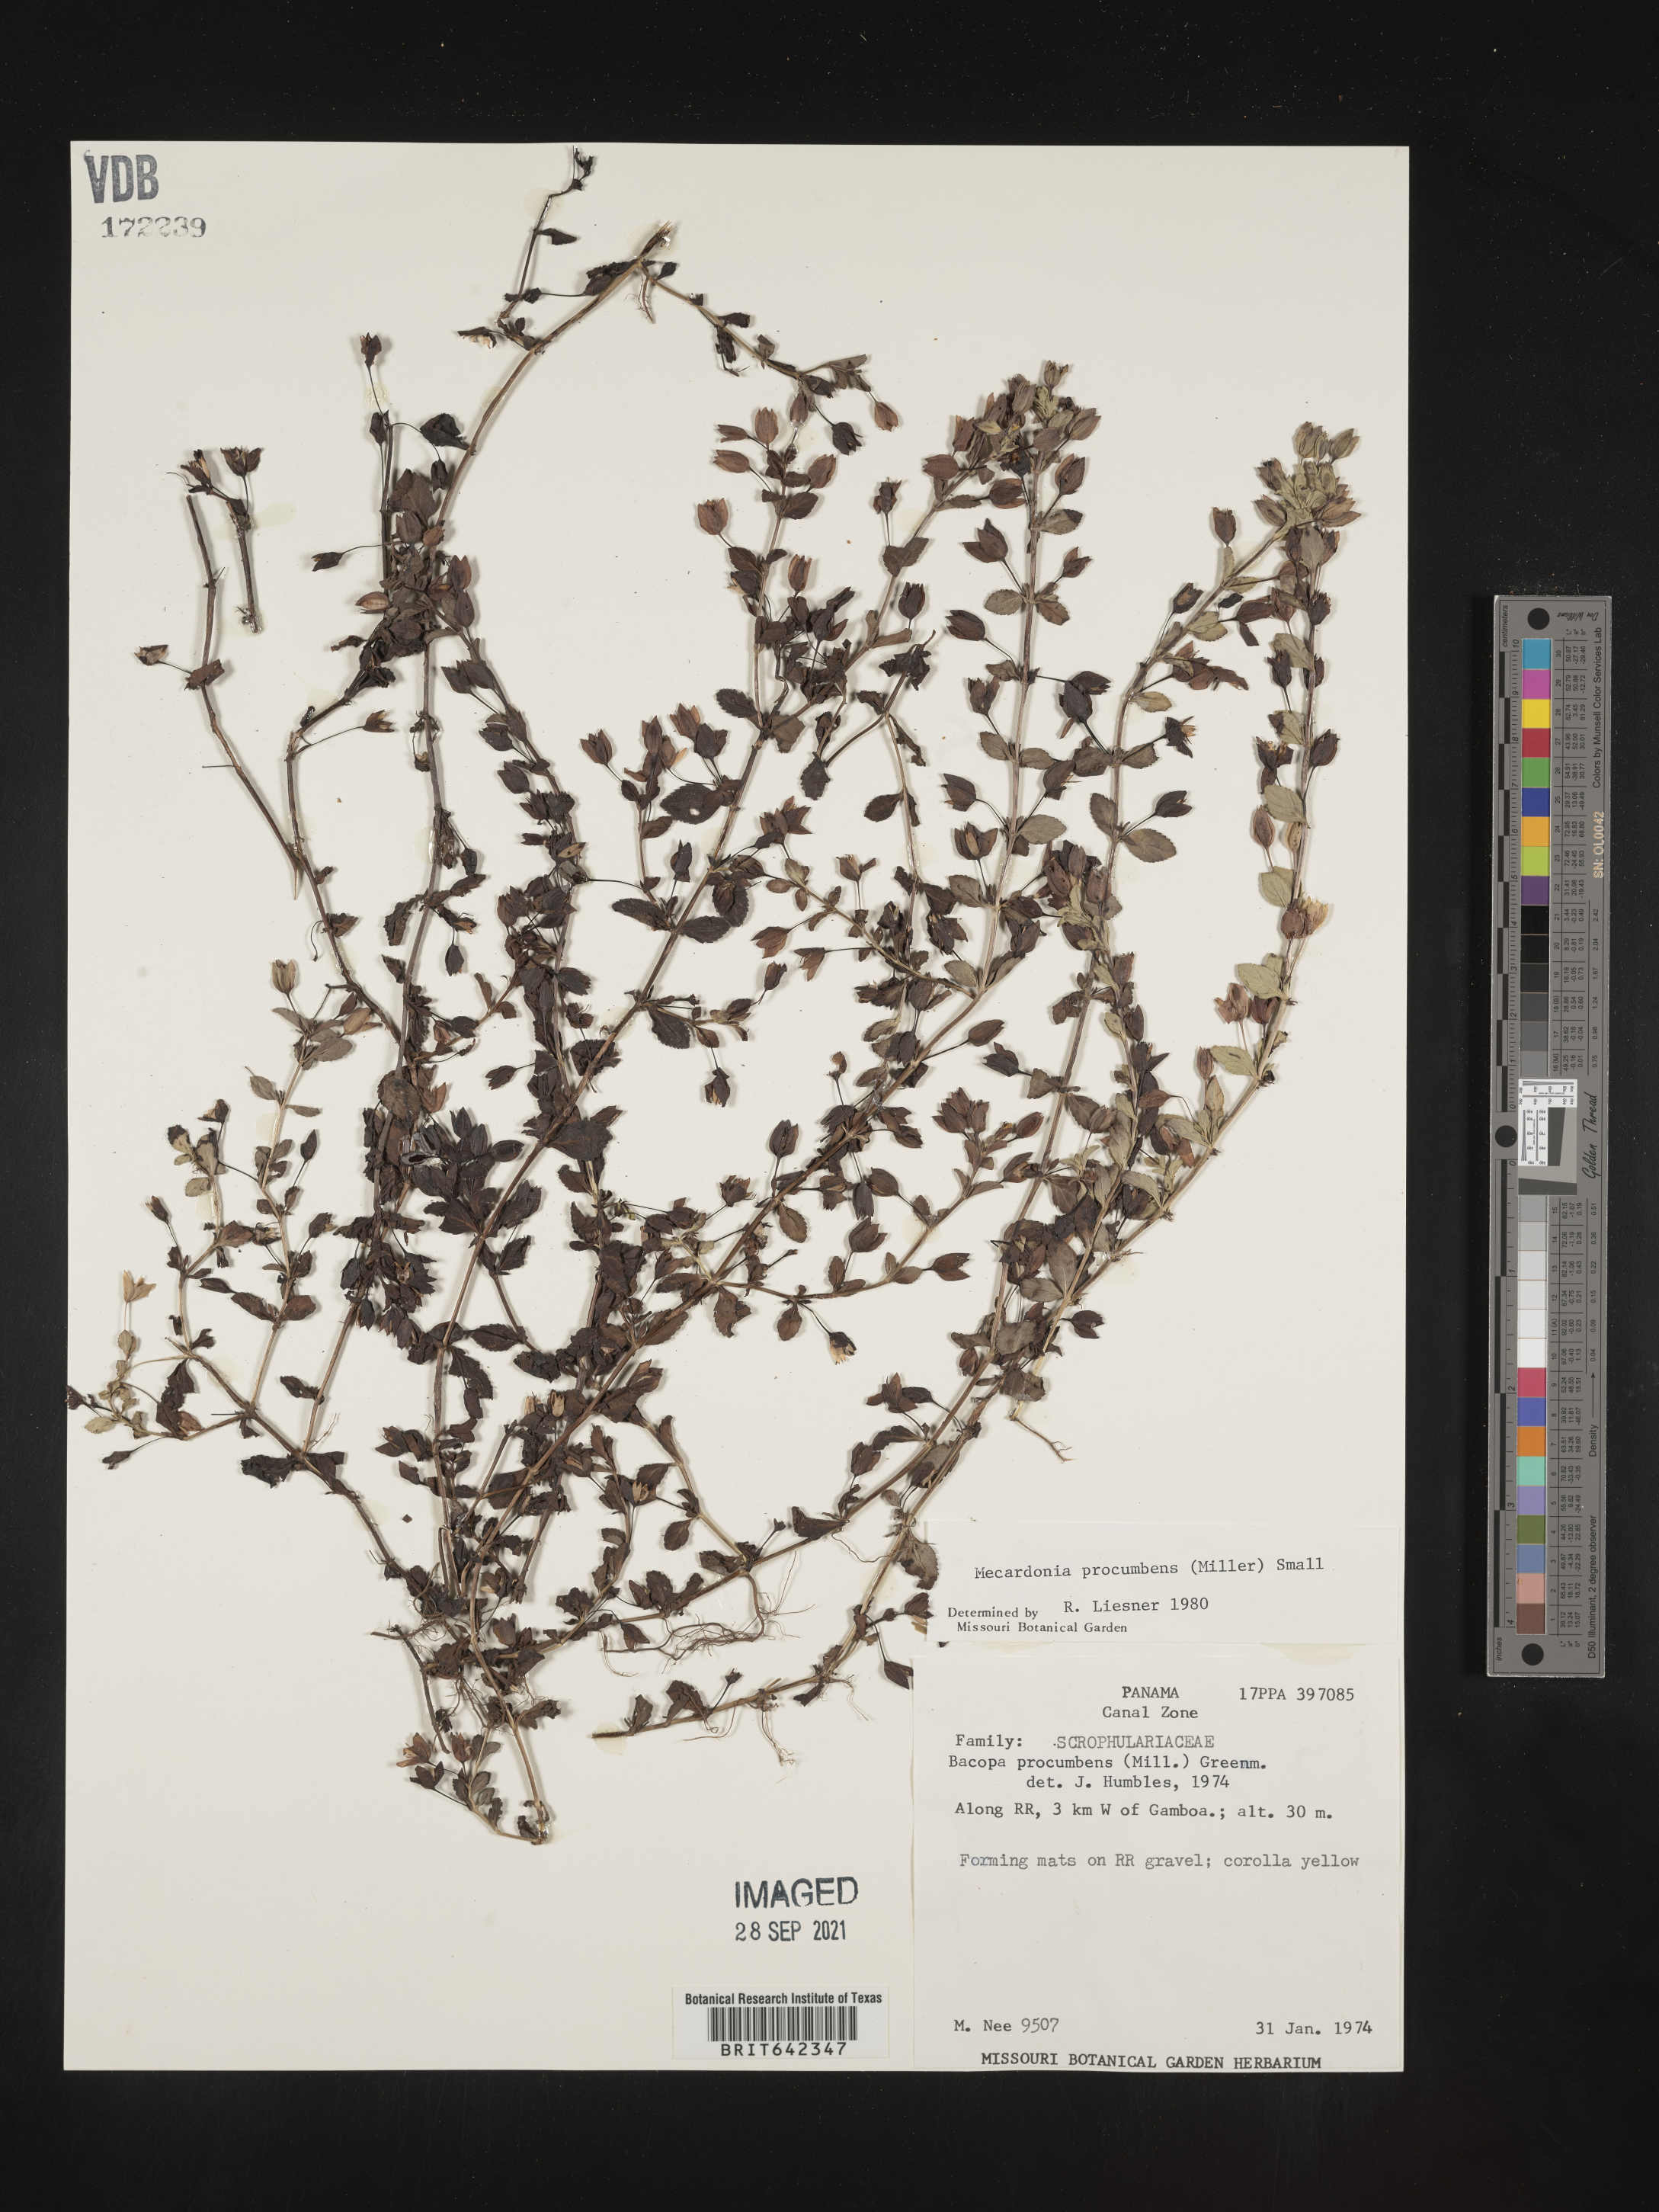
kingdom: Plantae
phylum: Tracheophyta
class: Magnoliopsida
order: Lamiales
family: Plantaginaceae
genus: Bacopa
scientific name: Bacopa
